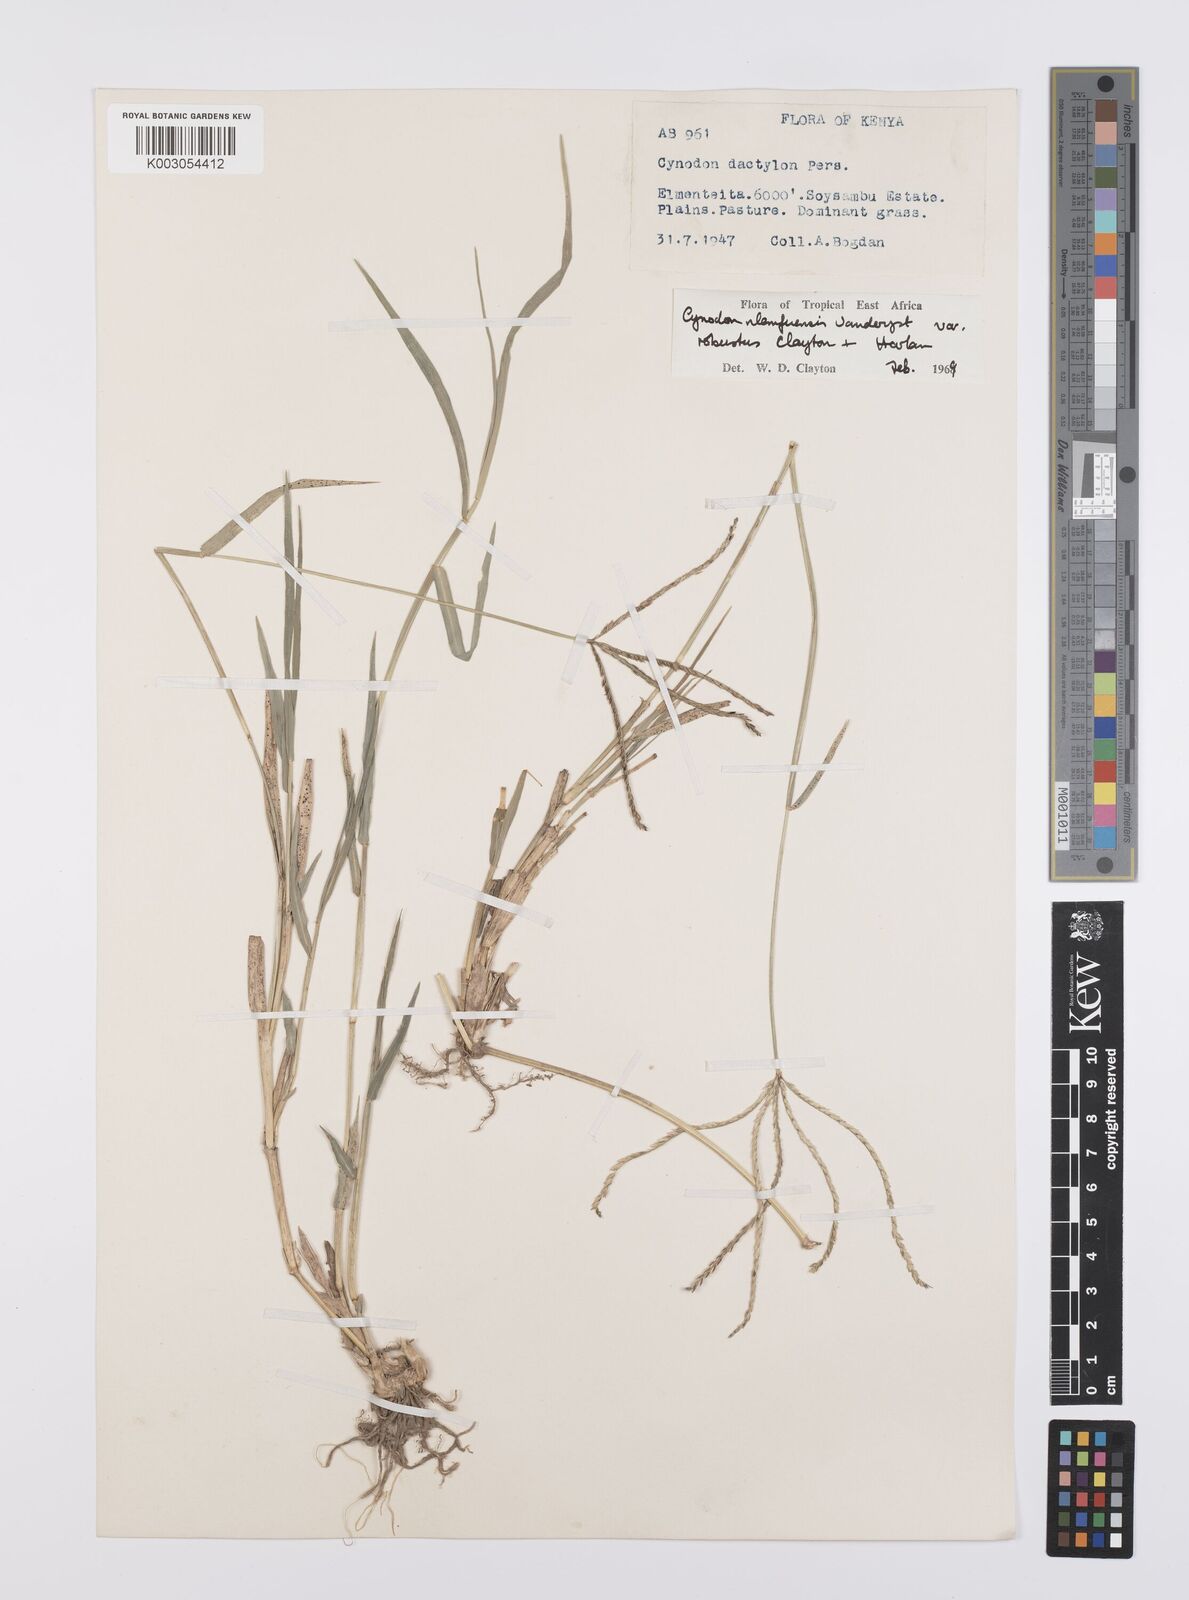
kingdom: Plantae
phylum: Tracheophyta
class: Liliopsida
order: Poales
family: Poaceae
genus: Cynodon
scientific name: Cynodon nlemfuensis
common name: African bermudagrass
